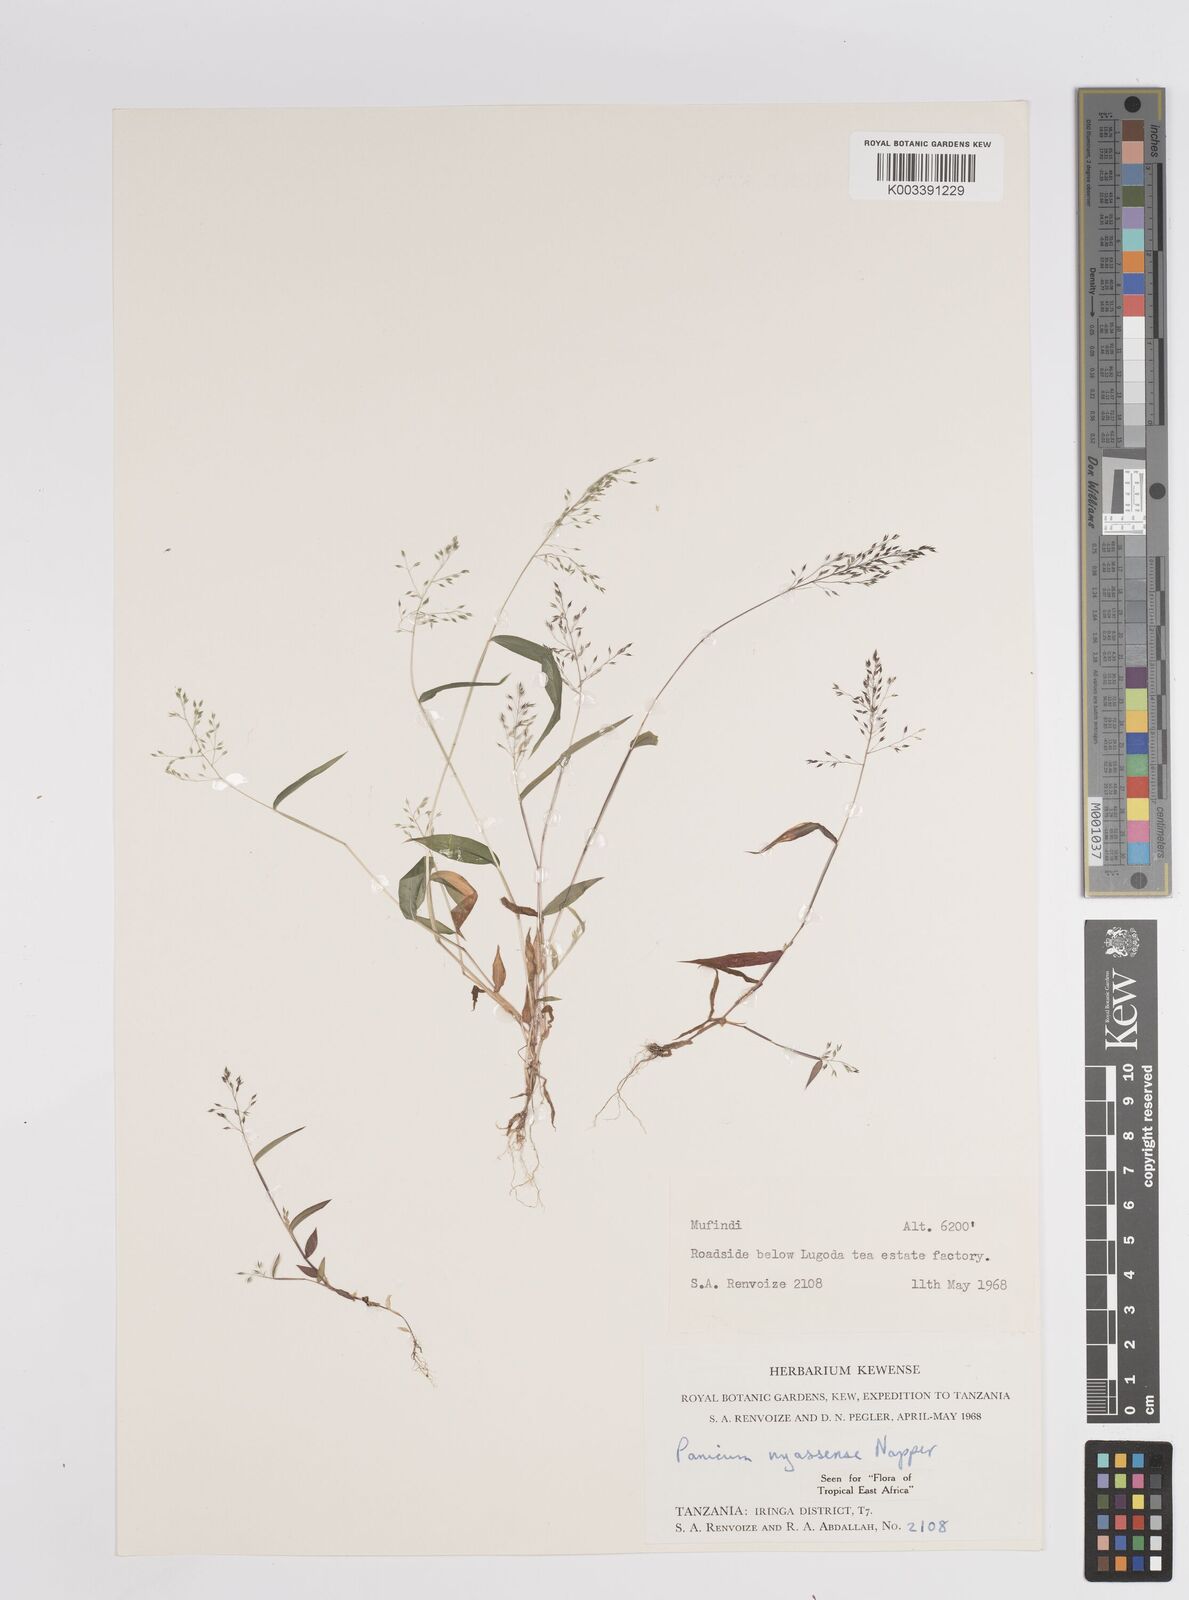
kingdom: Plantae
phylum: Tracheophyta
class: Liliopsida
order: Poales
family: Poaceae
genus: Panicum
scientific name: Panicum delicatulum
